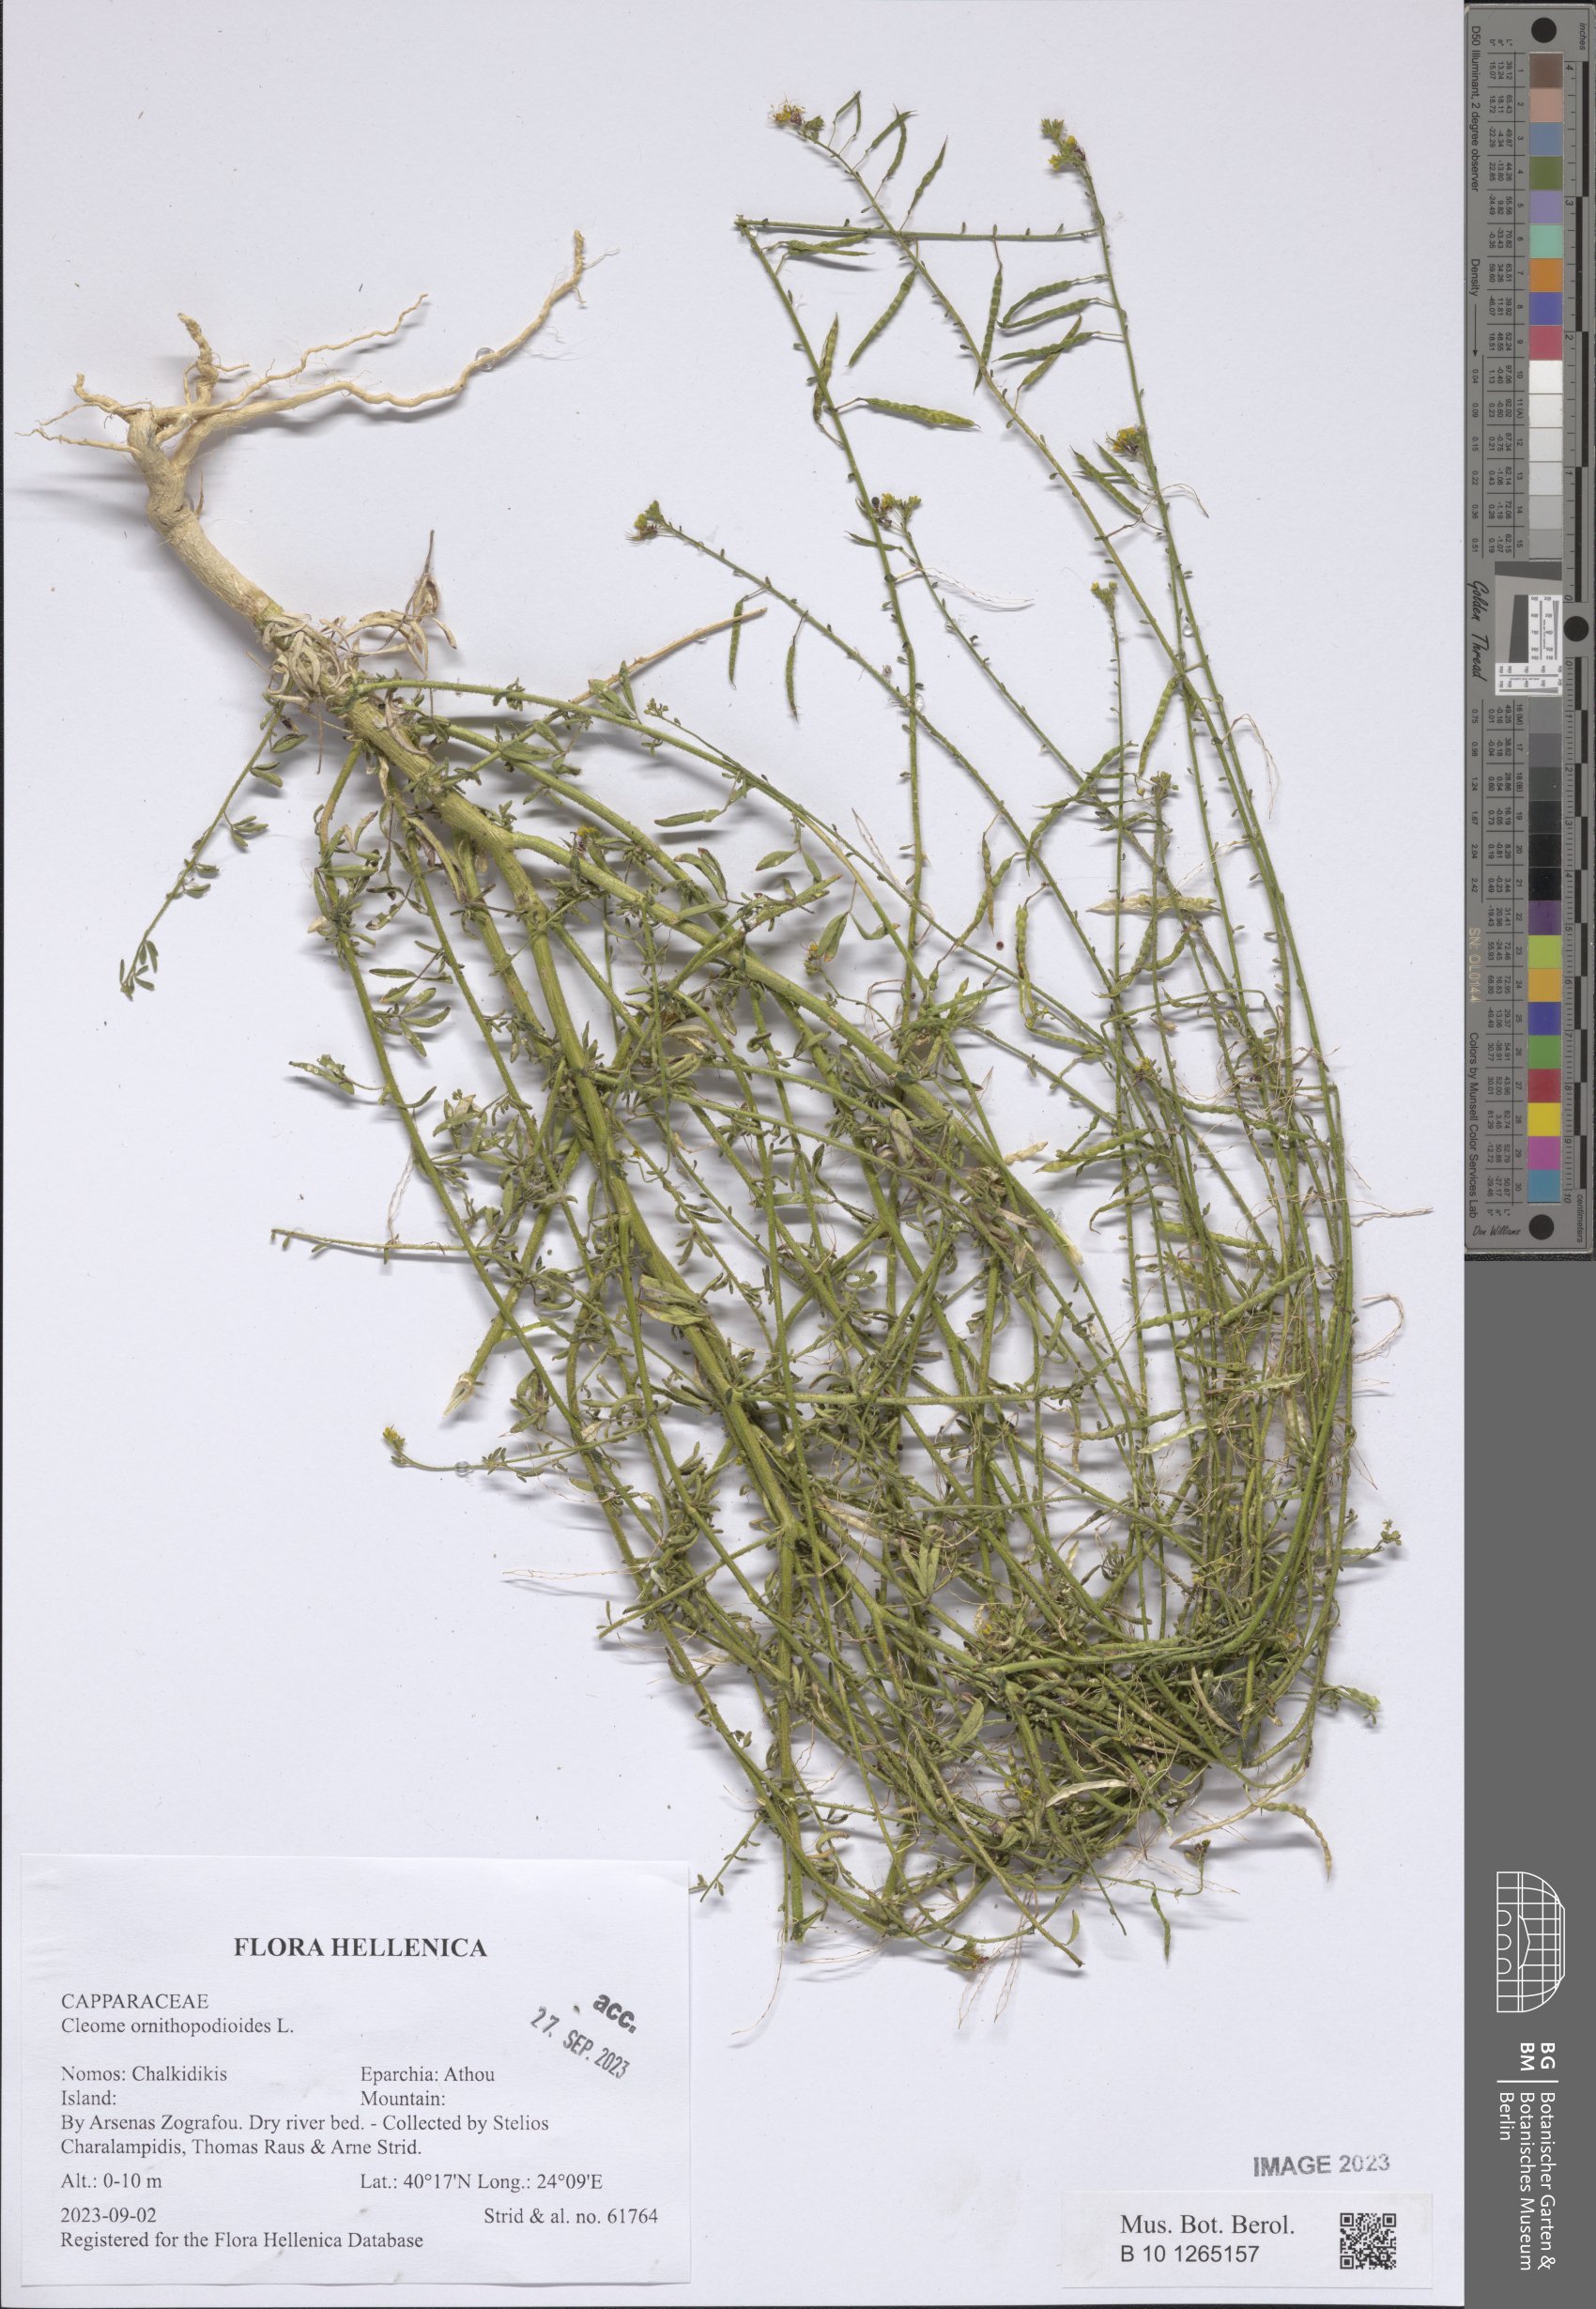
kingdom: Plantae
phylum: Tracheophyta
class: Magnoliopsida
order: Brassicales
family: Cleomaceae
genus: Cleome
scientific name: Cleome ornithopodioides
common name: Bird spiderflower
